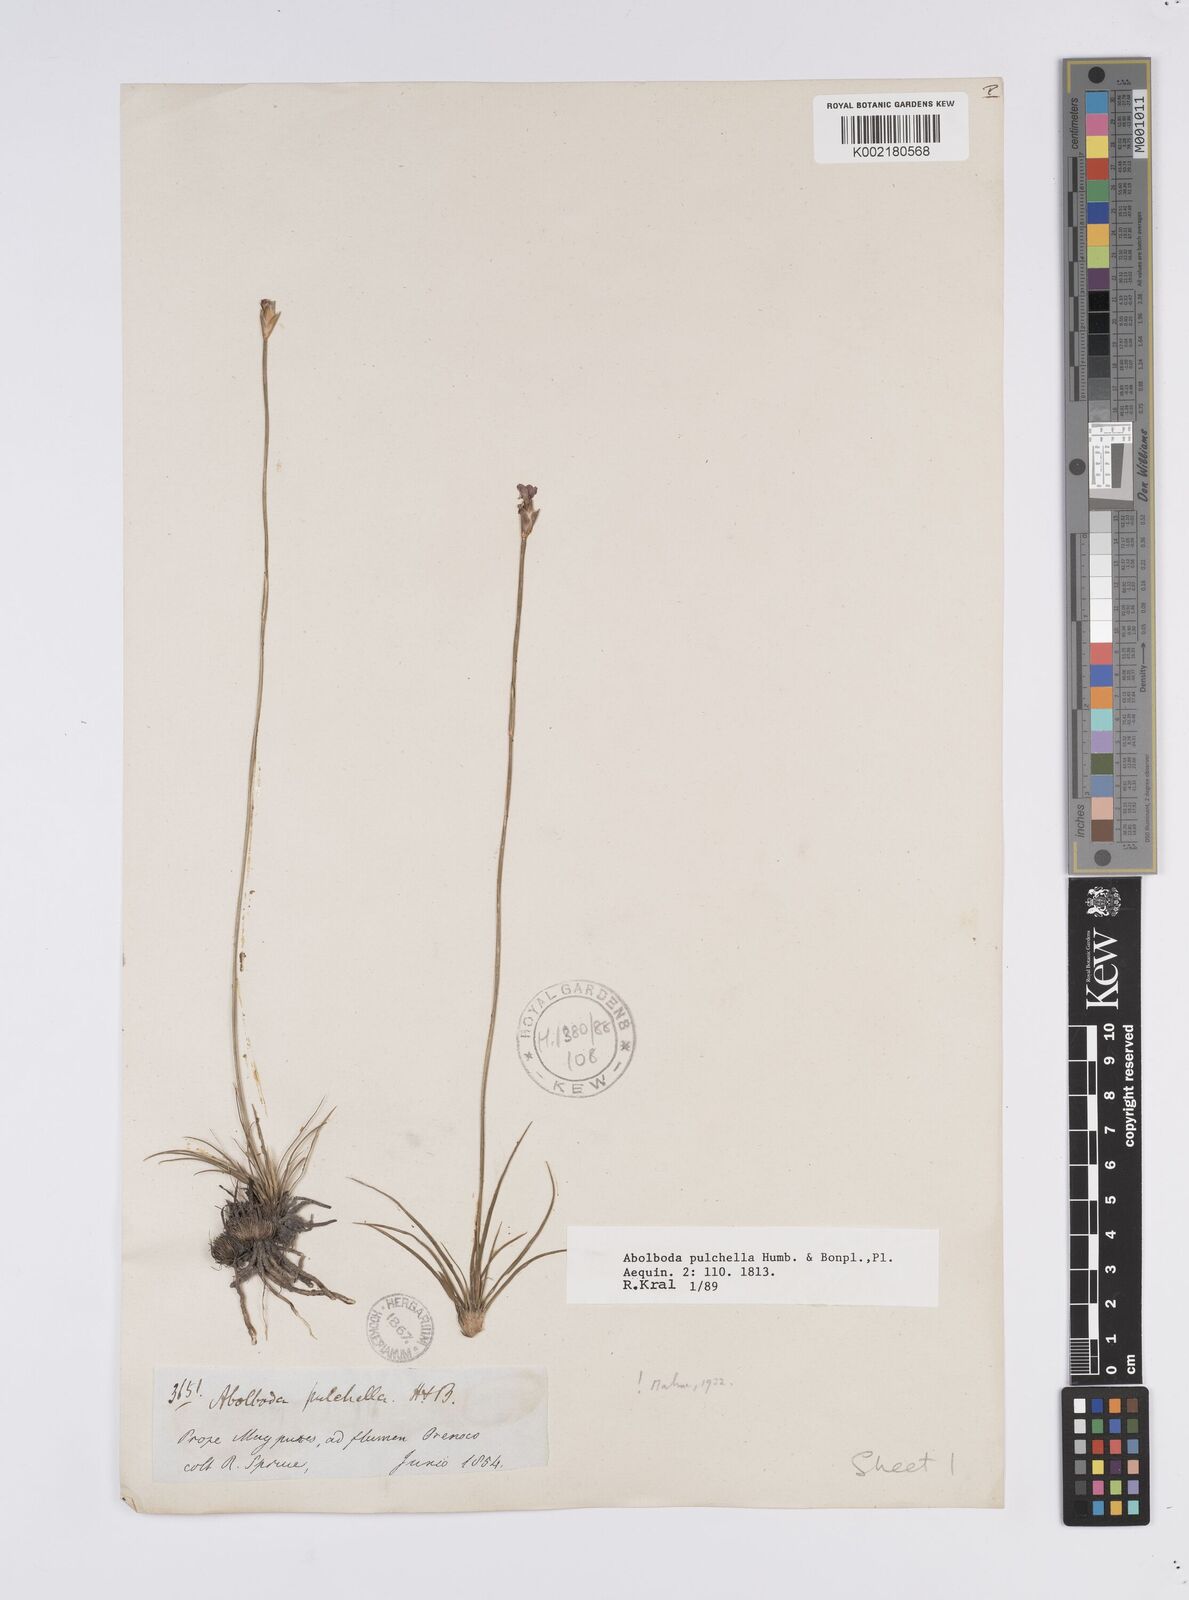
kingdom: Plantae
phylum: Tracheophyta
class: Liliopsida
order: Poales
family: Xyridaceae
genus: Abolboda
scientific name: Abolboda pulchella
